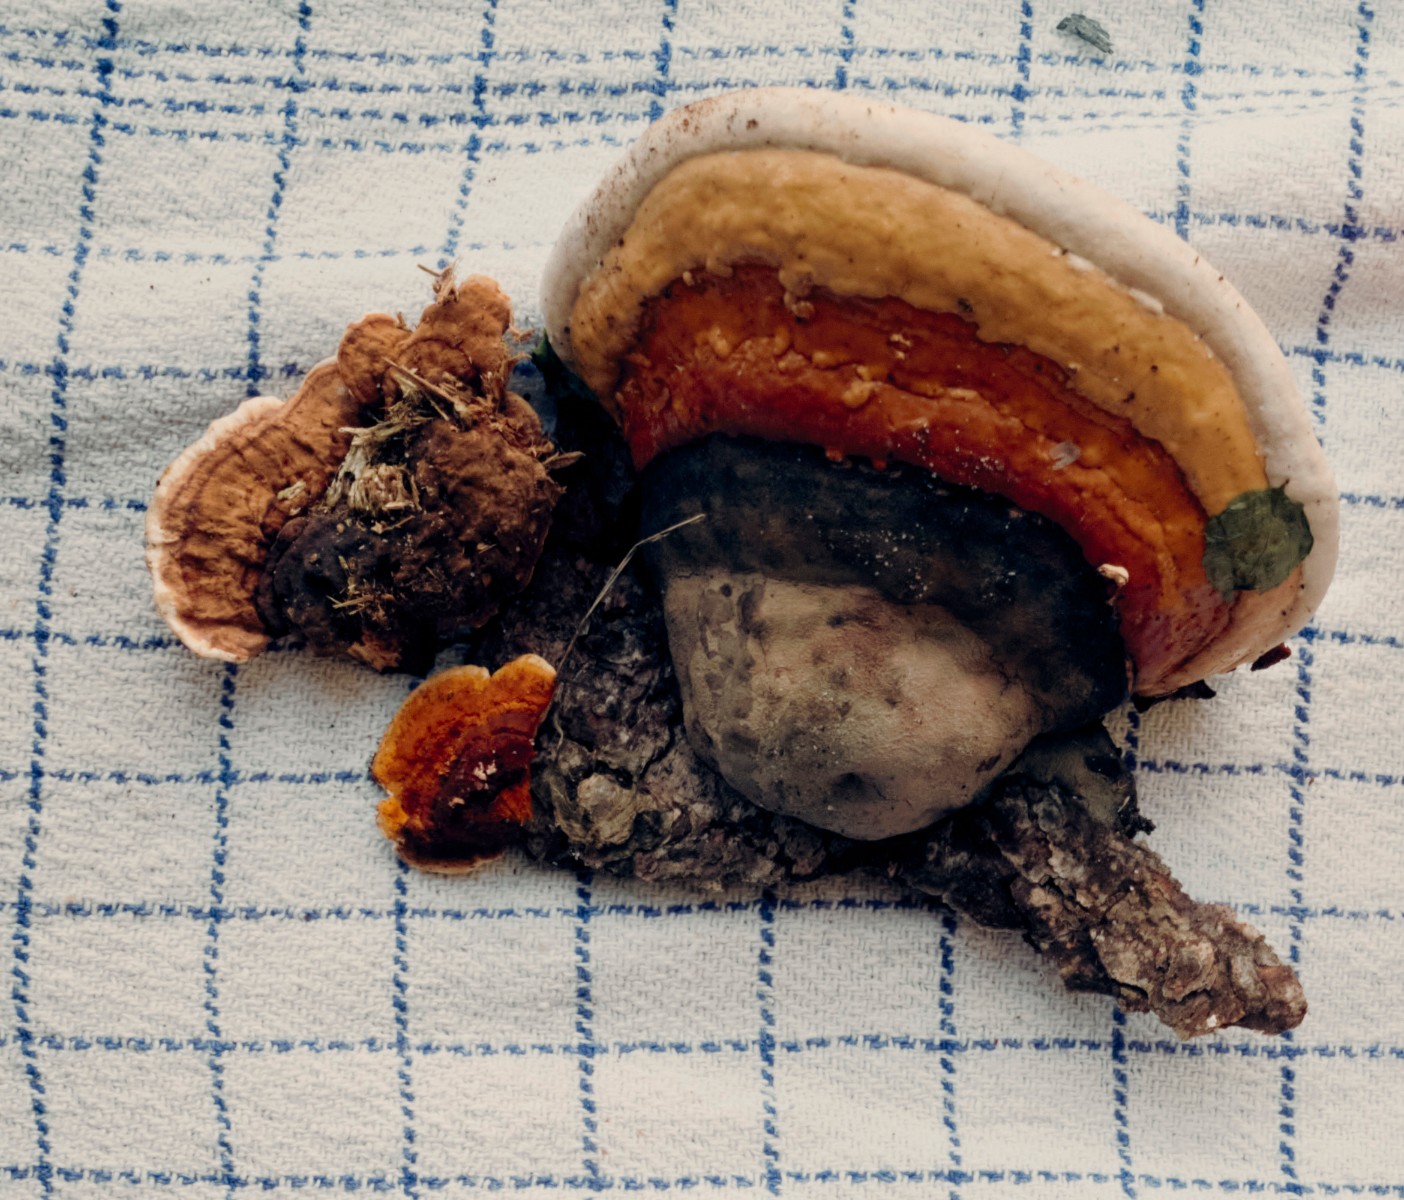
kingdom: Fungi
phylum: Basidiomycota
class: Agaricomycetes
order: Polyporales
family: Fomitopsidaceae
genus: Fomitopsis
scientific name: Fomitopsis pinicola
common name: randbæltet hovporesvamp
